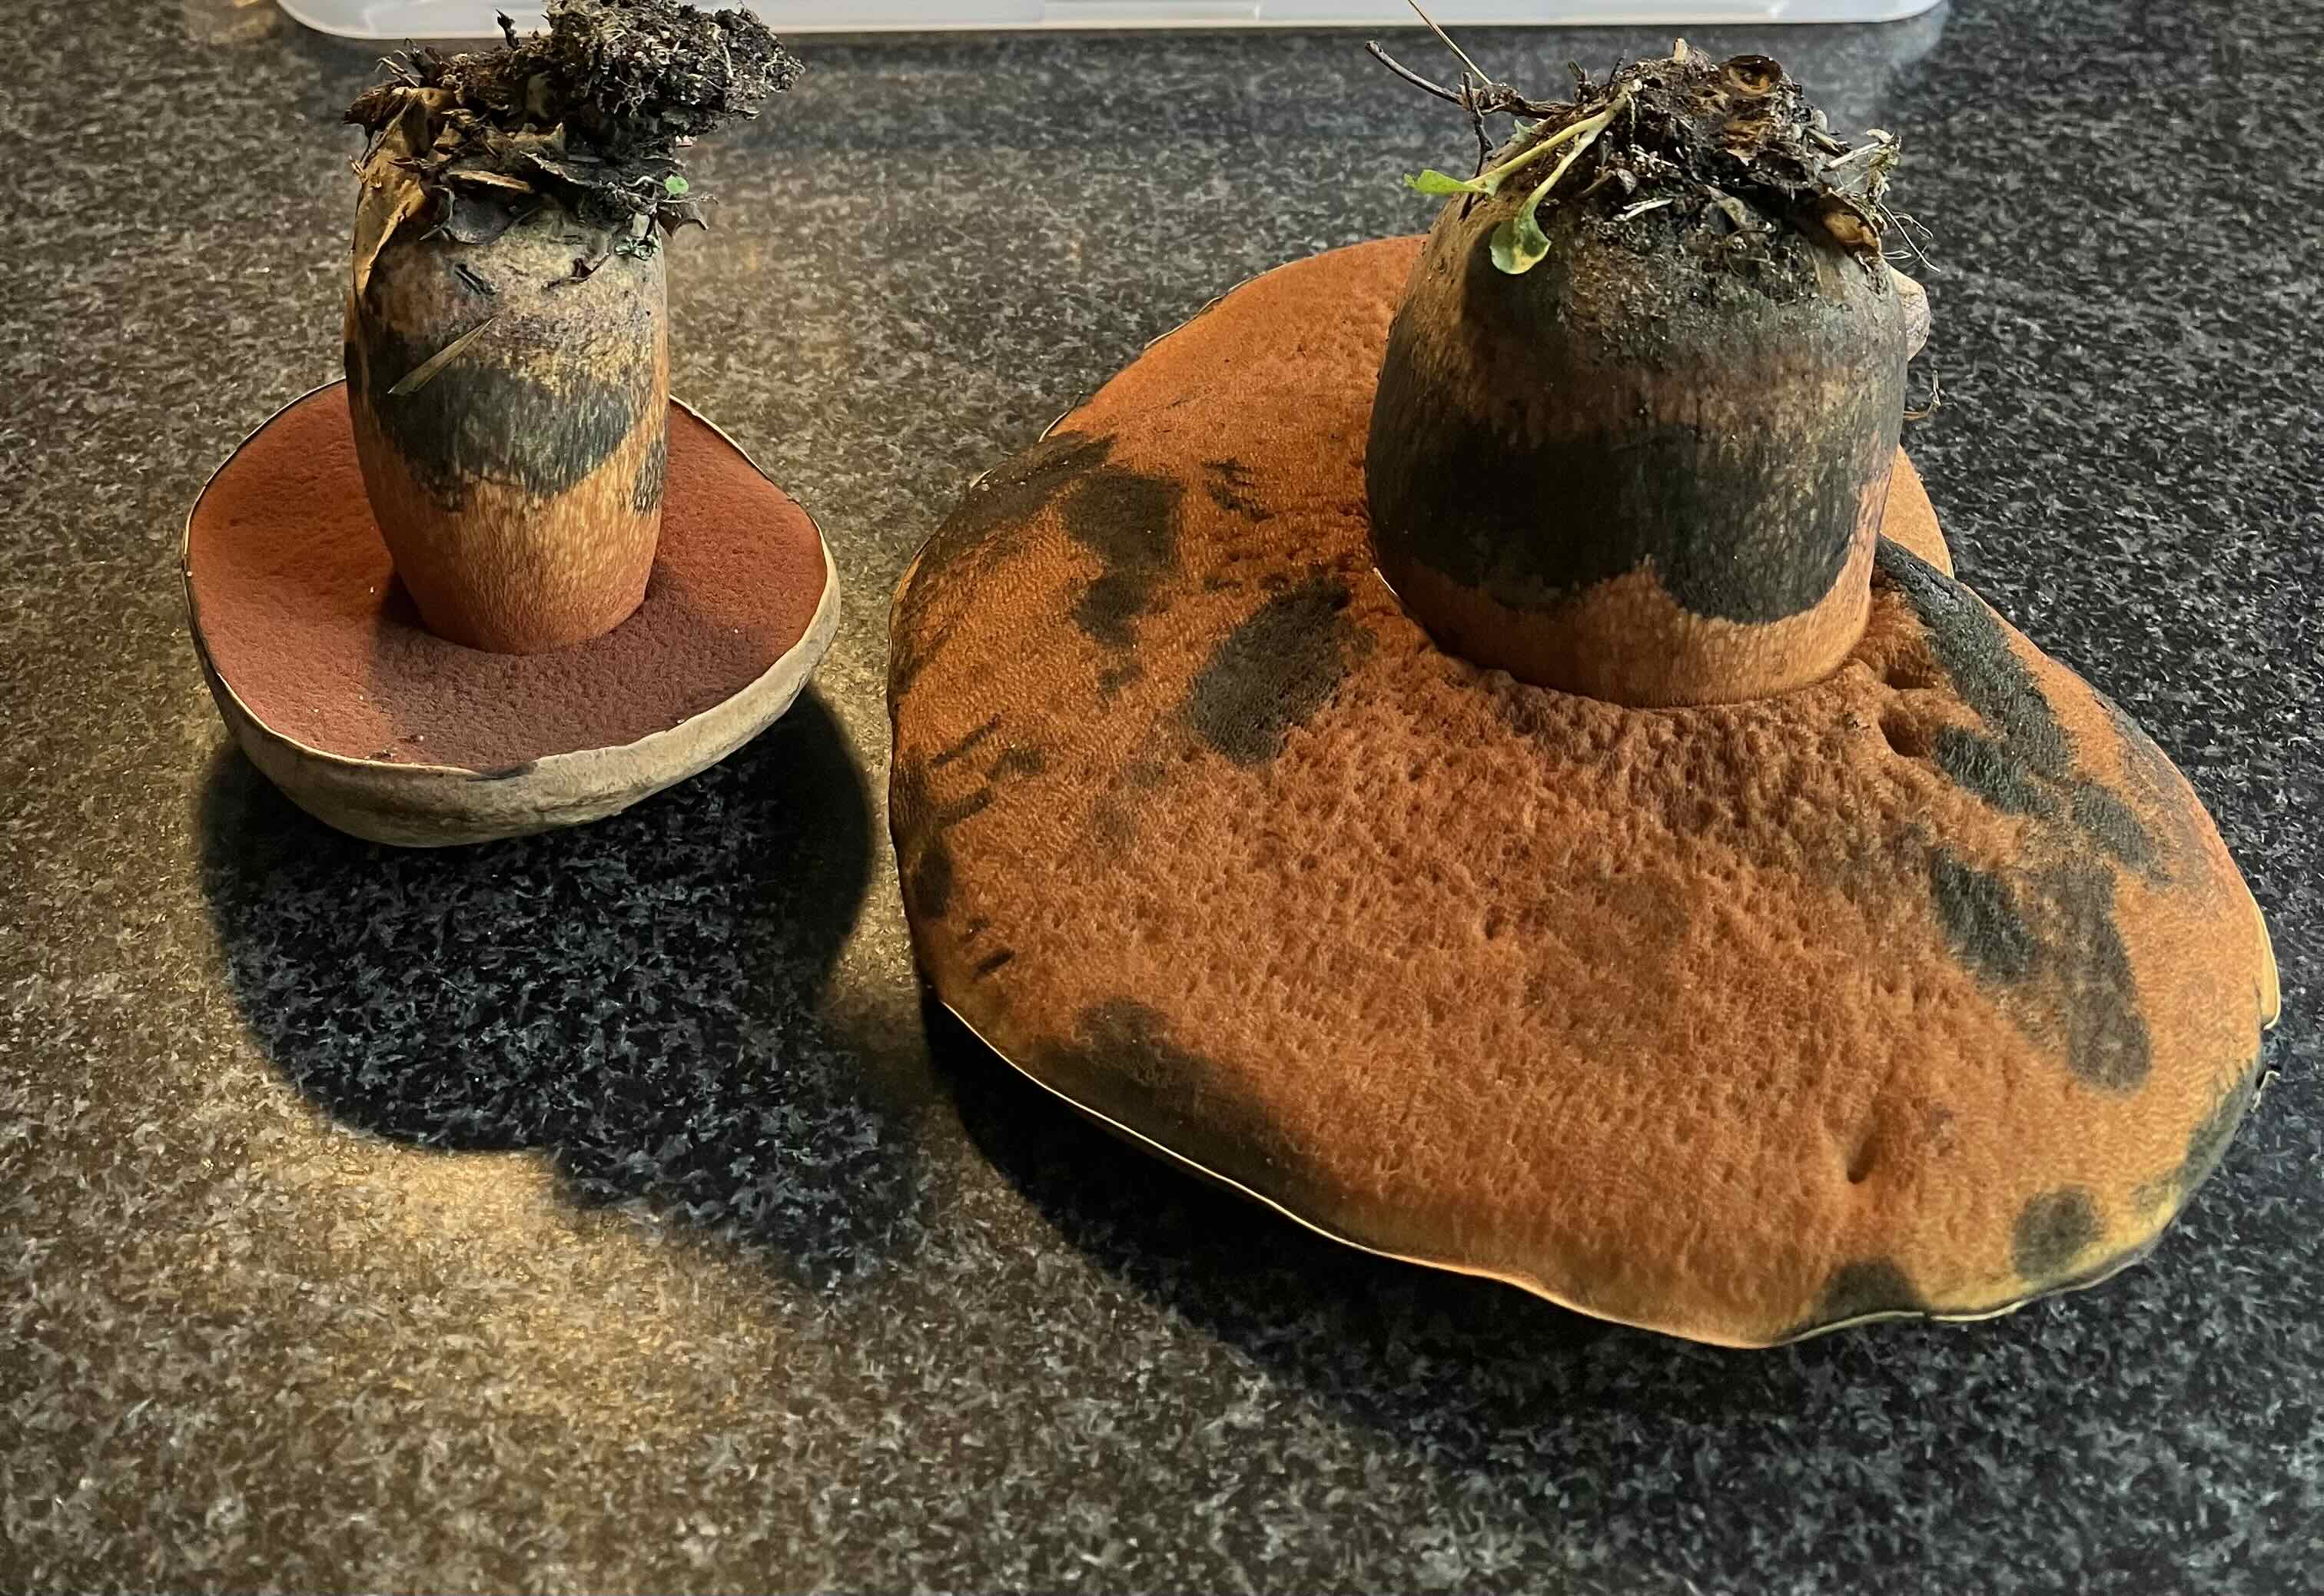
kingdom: Fungi
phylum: Basidiomycota
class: Agaricomycetes
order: Boletales
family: Boletaceae
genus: Suillellus
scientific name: Suillellus luridus
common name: netstokket indigorørhat
